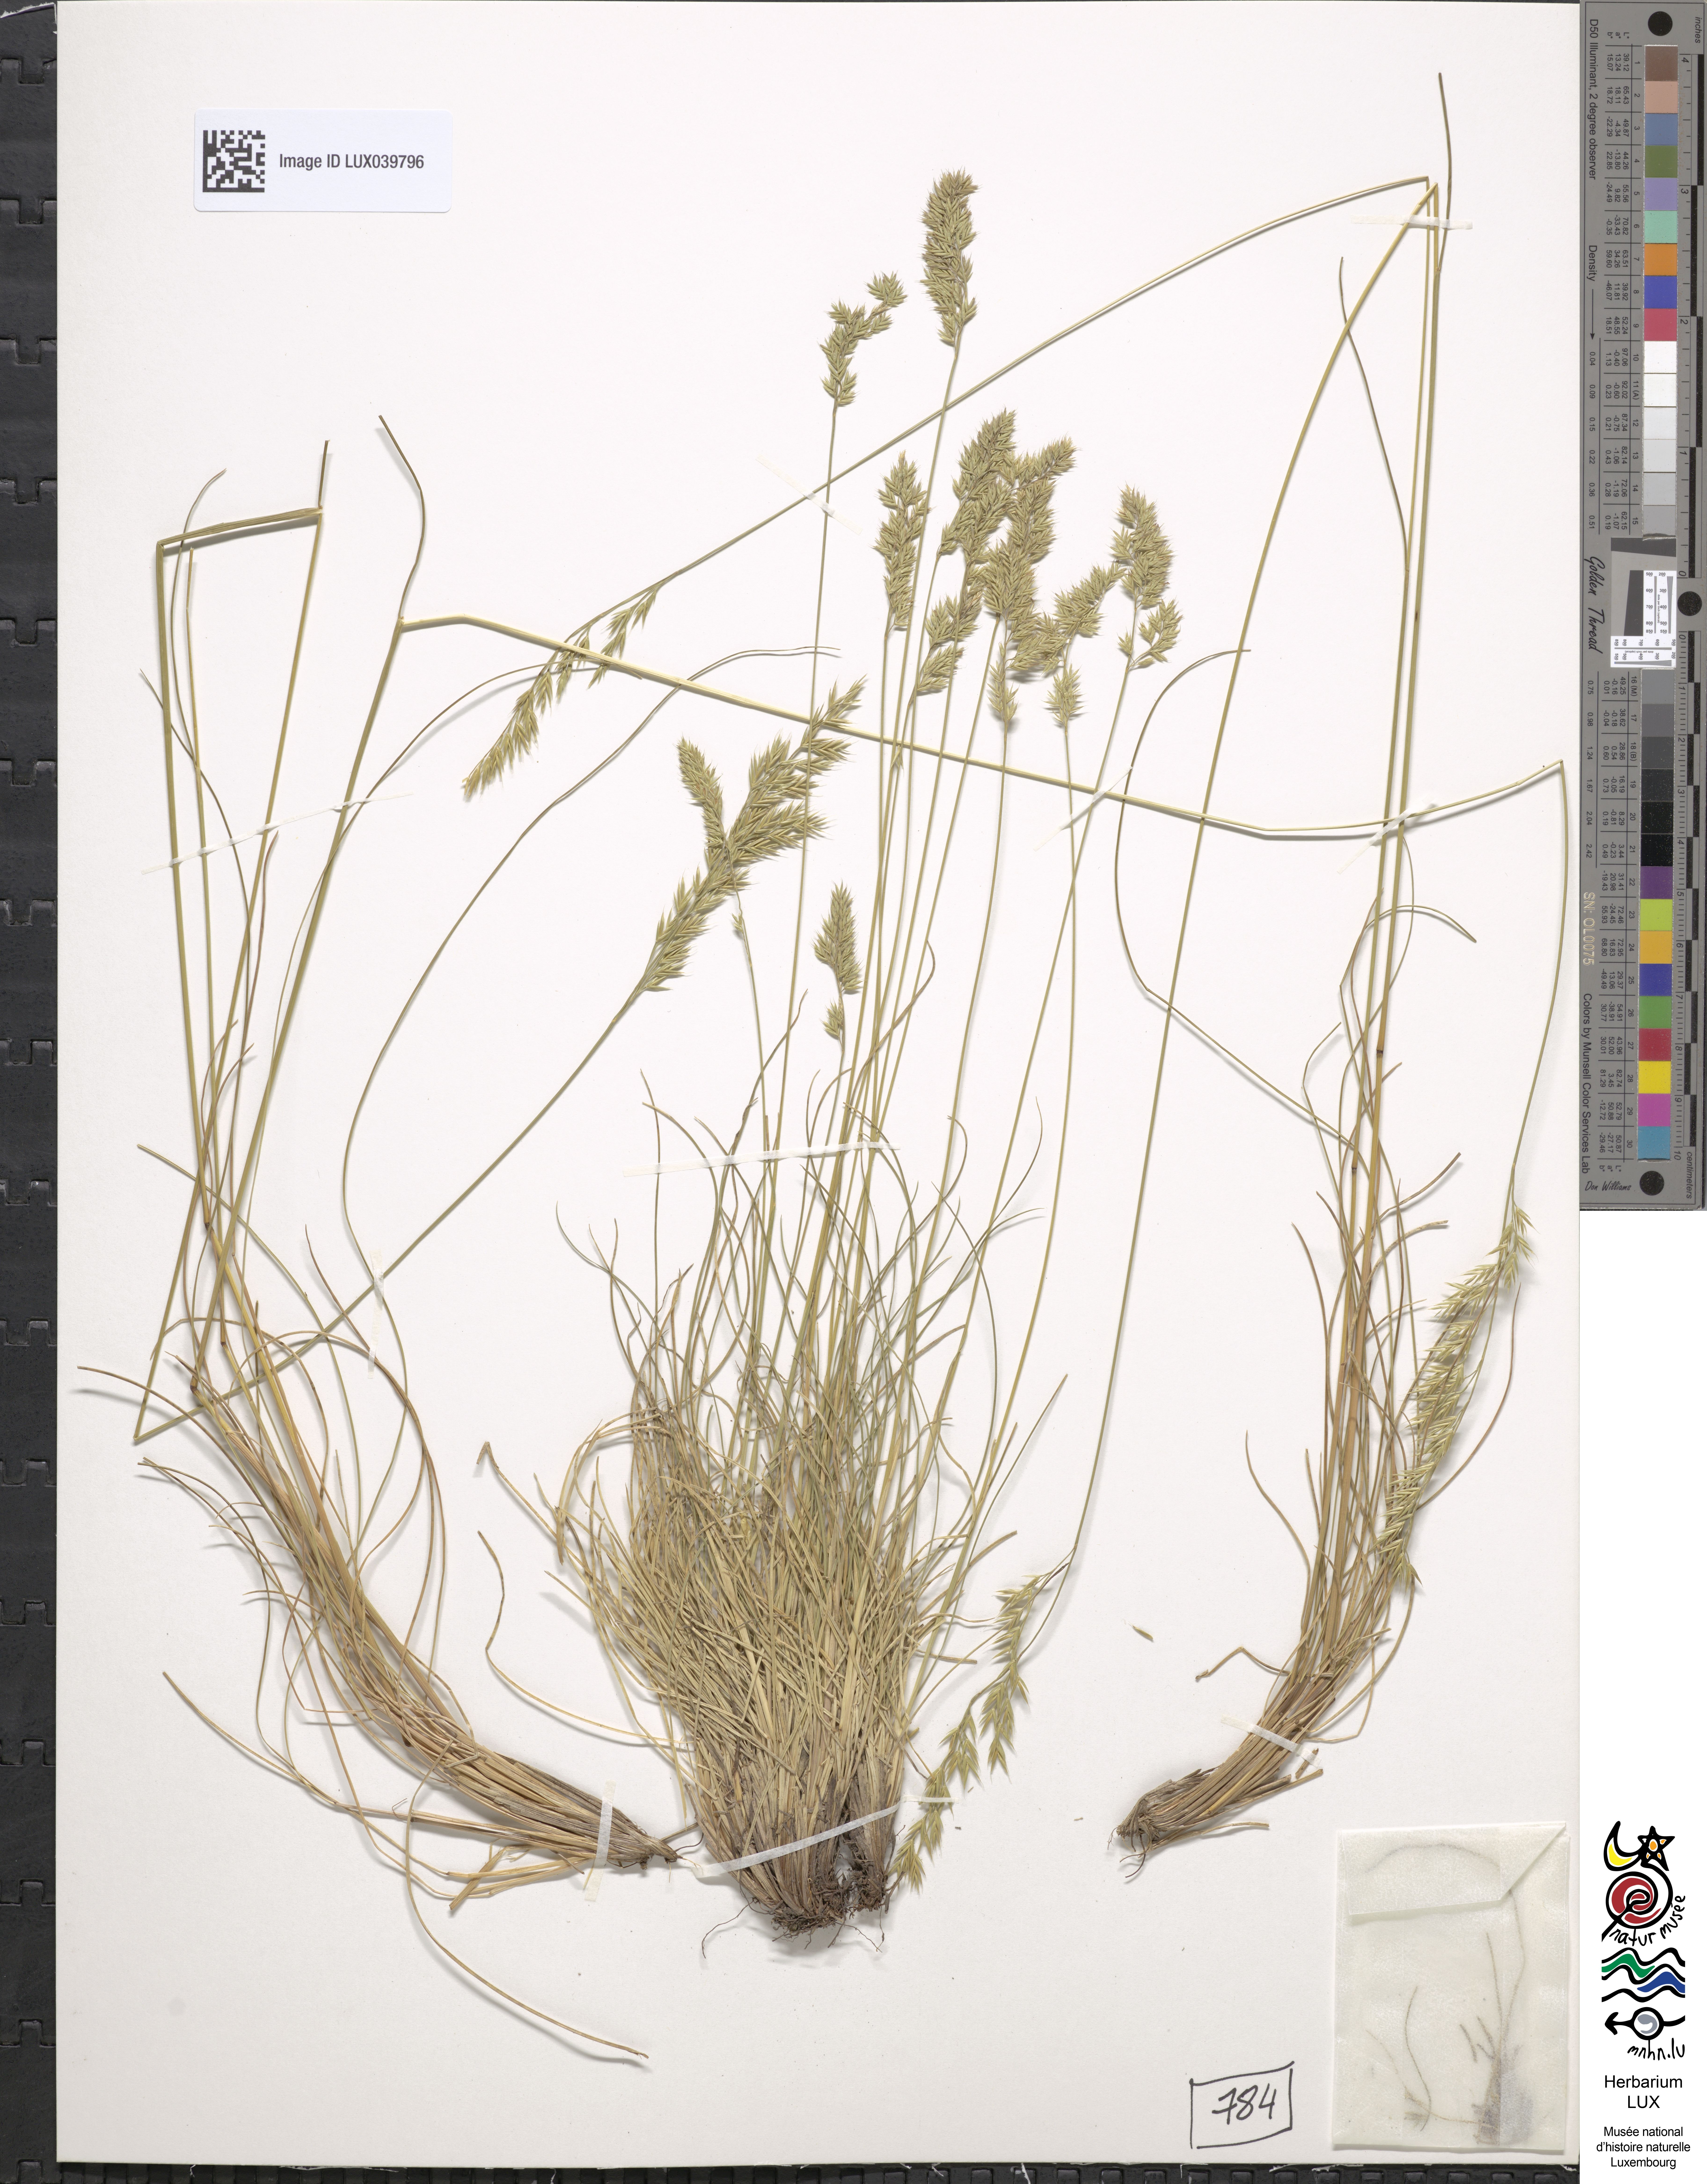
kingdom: Plantae
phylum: Tracheophyta
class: Liliopsida
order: Poales
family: Poaceae
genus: Festuca
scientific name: Festuca ovina
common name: Sheep fescue
